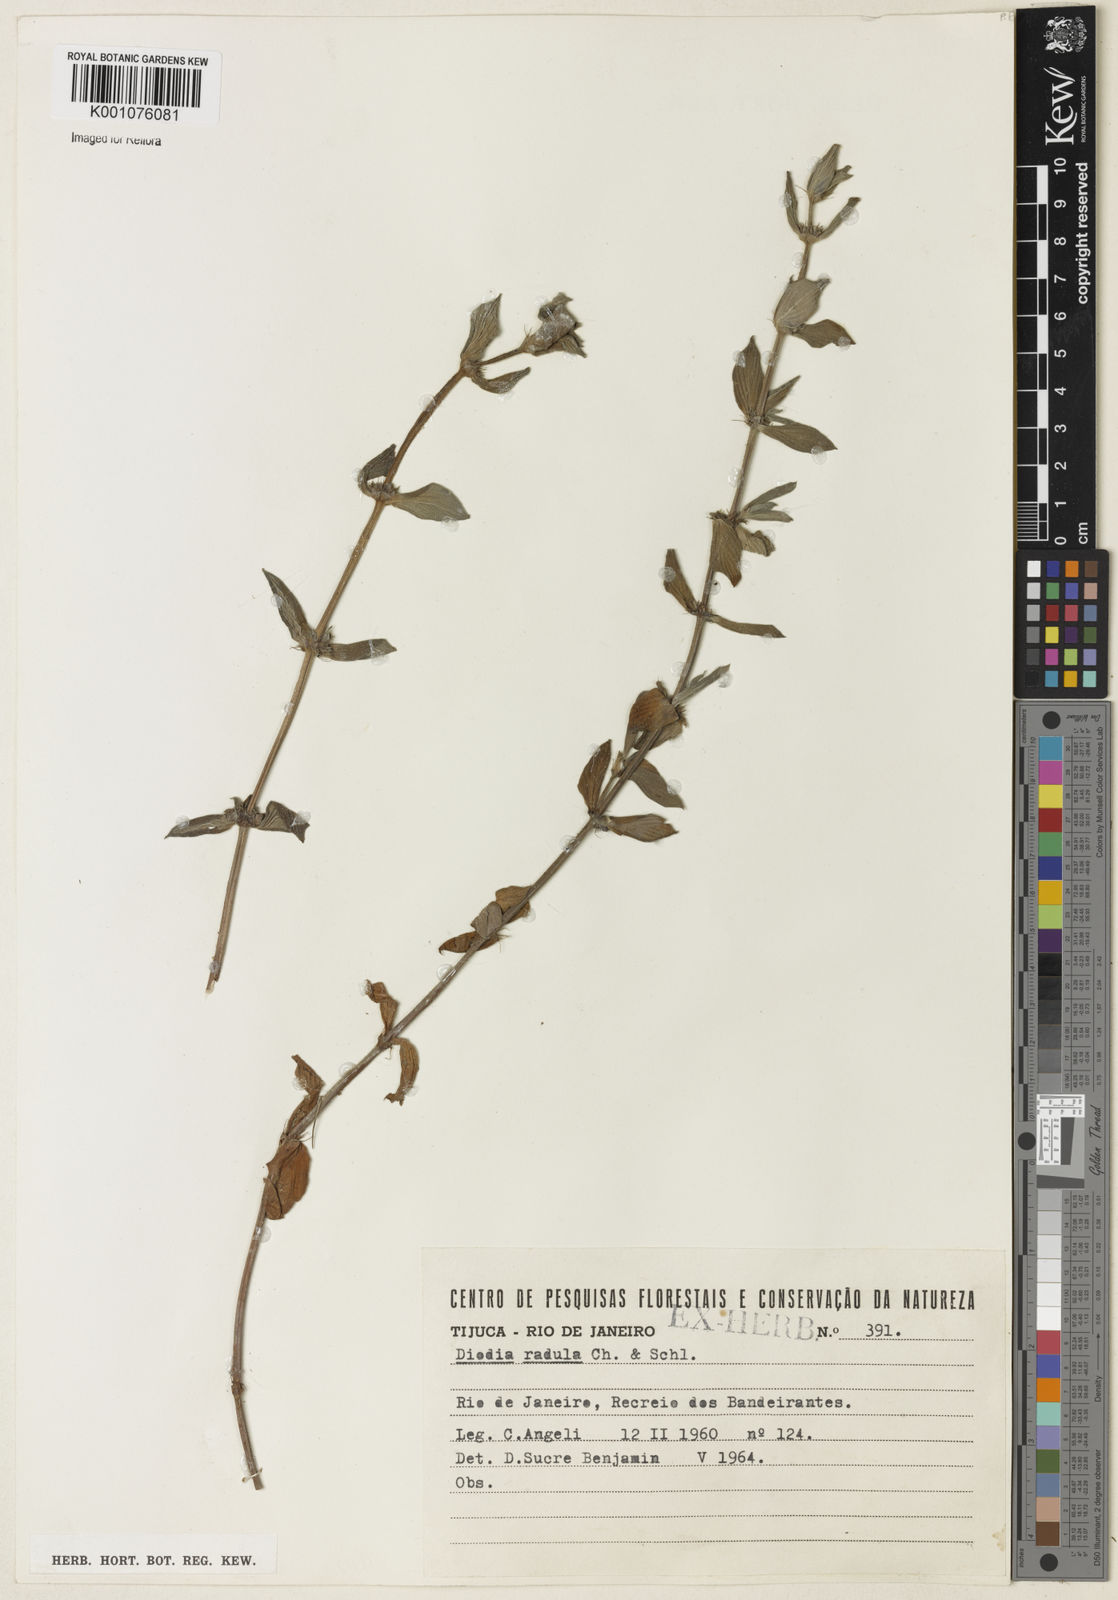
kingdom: Plantae
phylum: Tracheophyta
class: Magnoliopsida
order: Gentianales
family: Rubiaceae
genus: Hexasepalum
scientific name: Hexasepalum radulum
